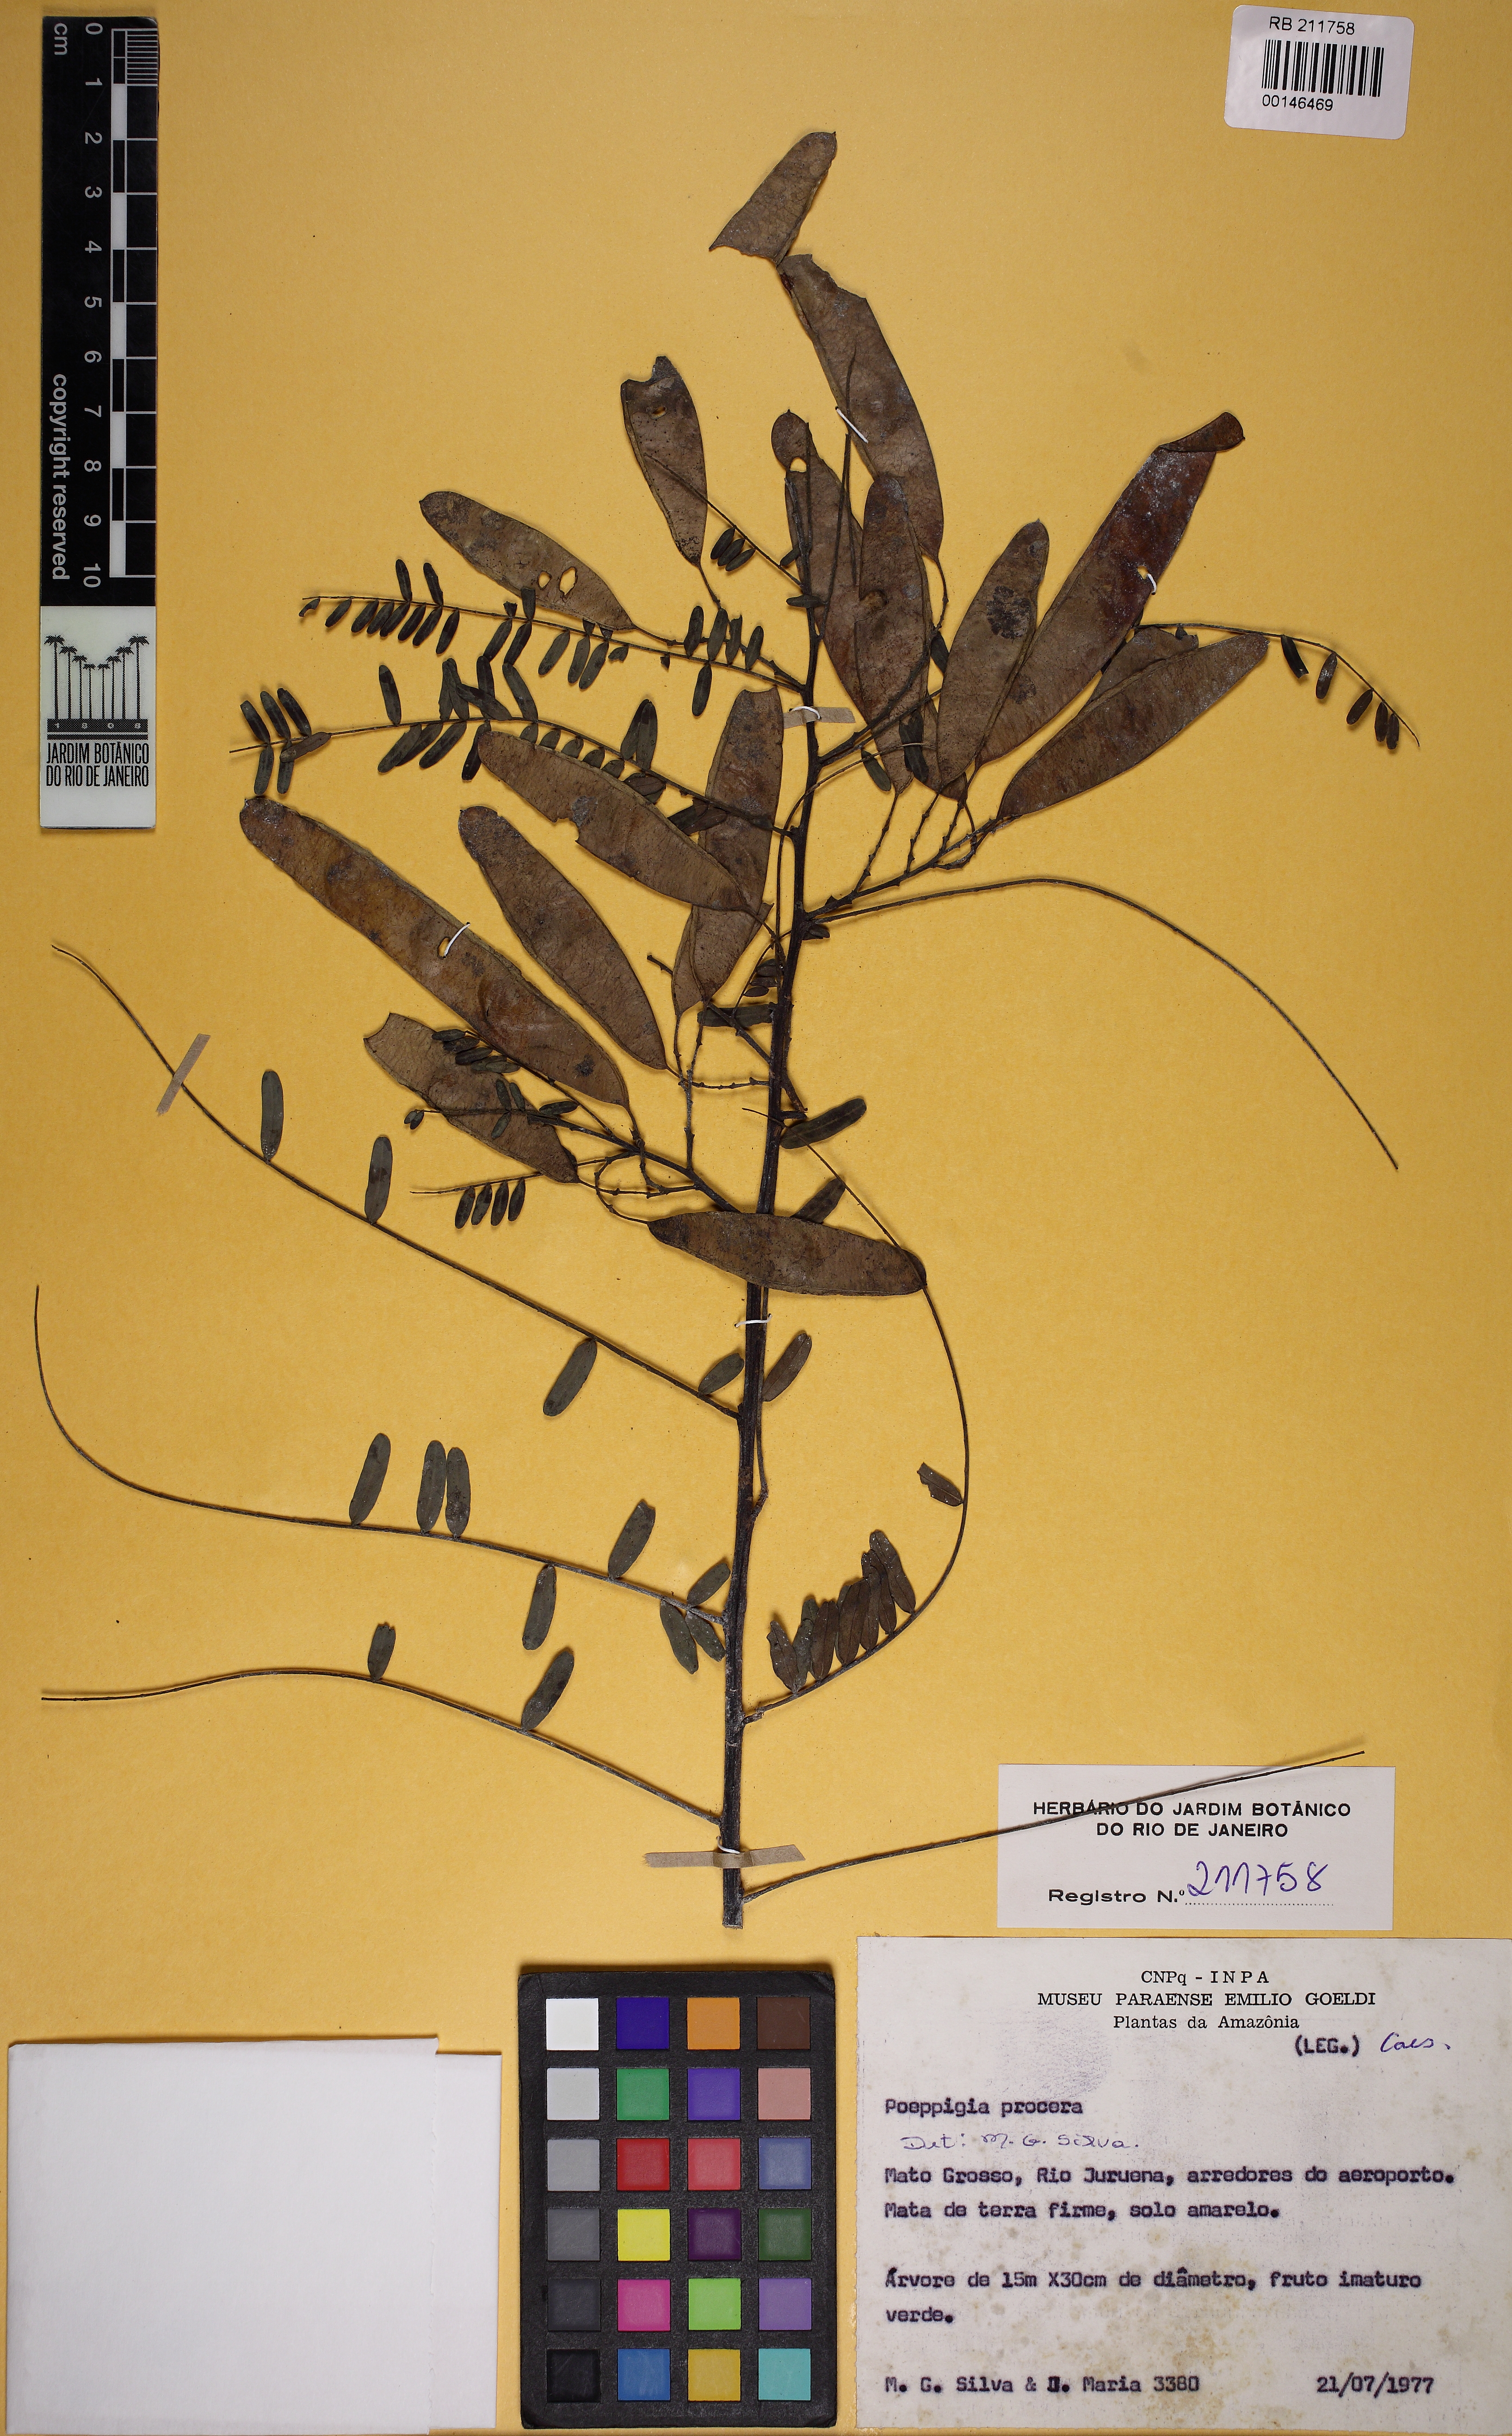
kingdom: Plantae
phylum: Tracheophyta
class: Magnoliopsida
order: Fabales
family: Fabaceae
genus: Poeppigia
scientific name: Poeppigia procera
